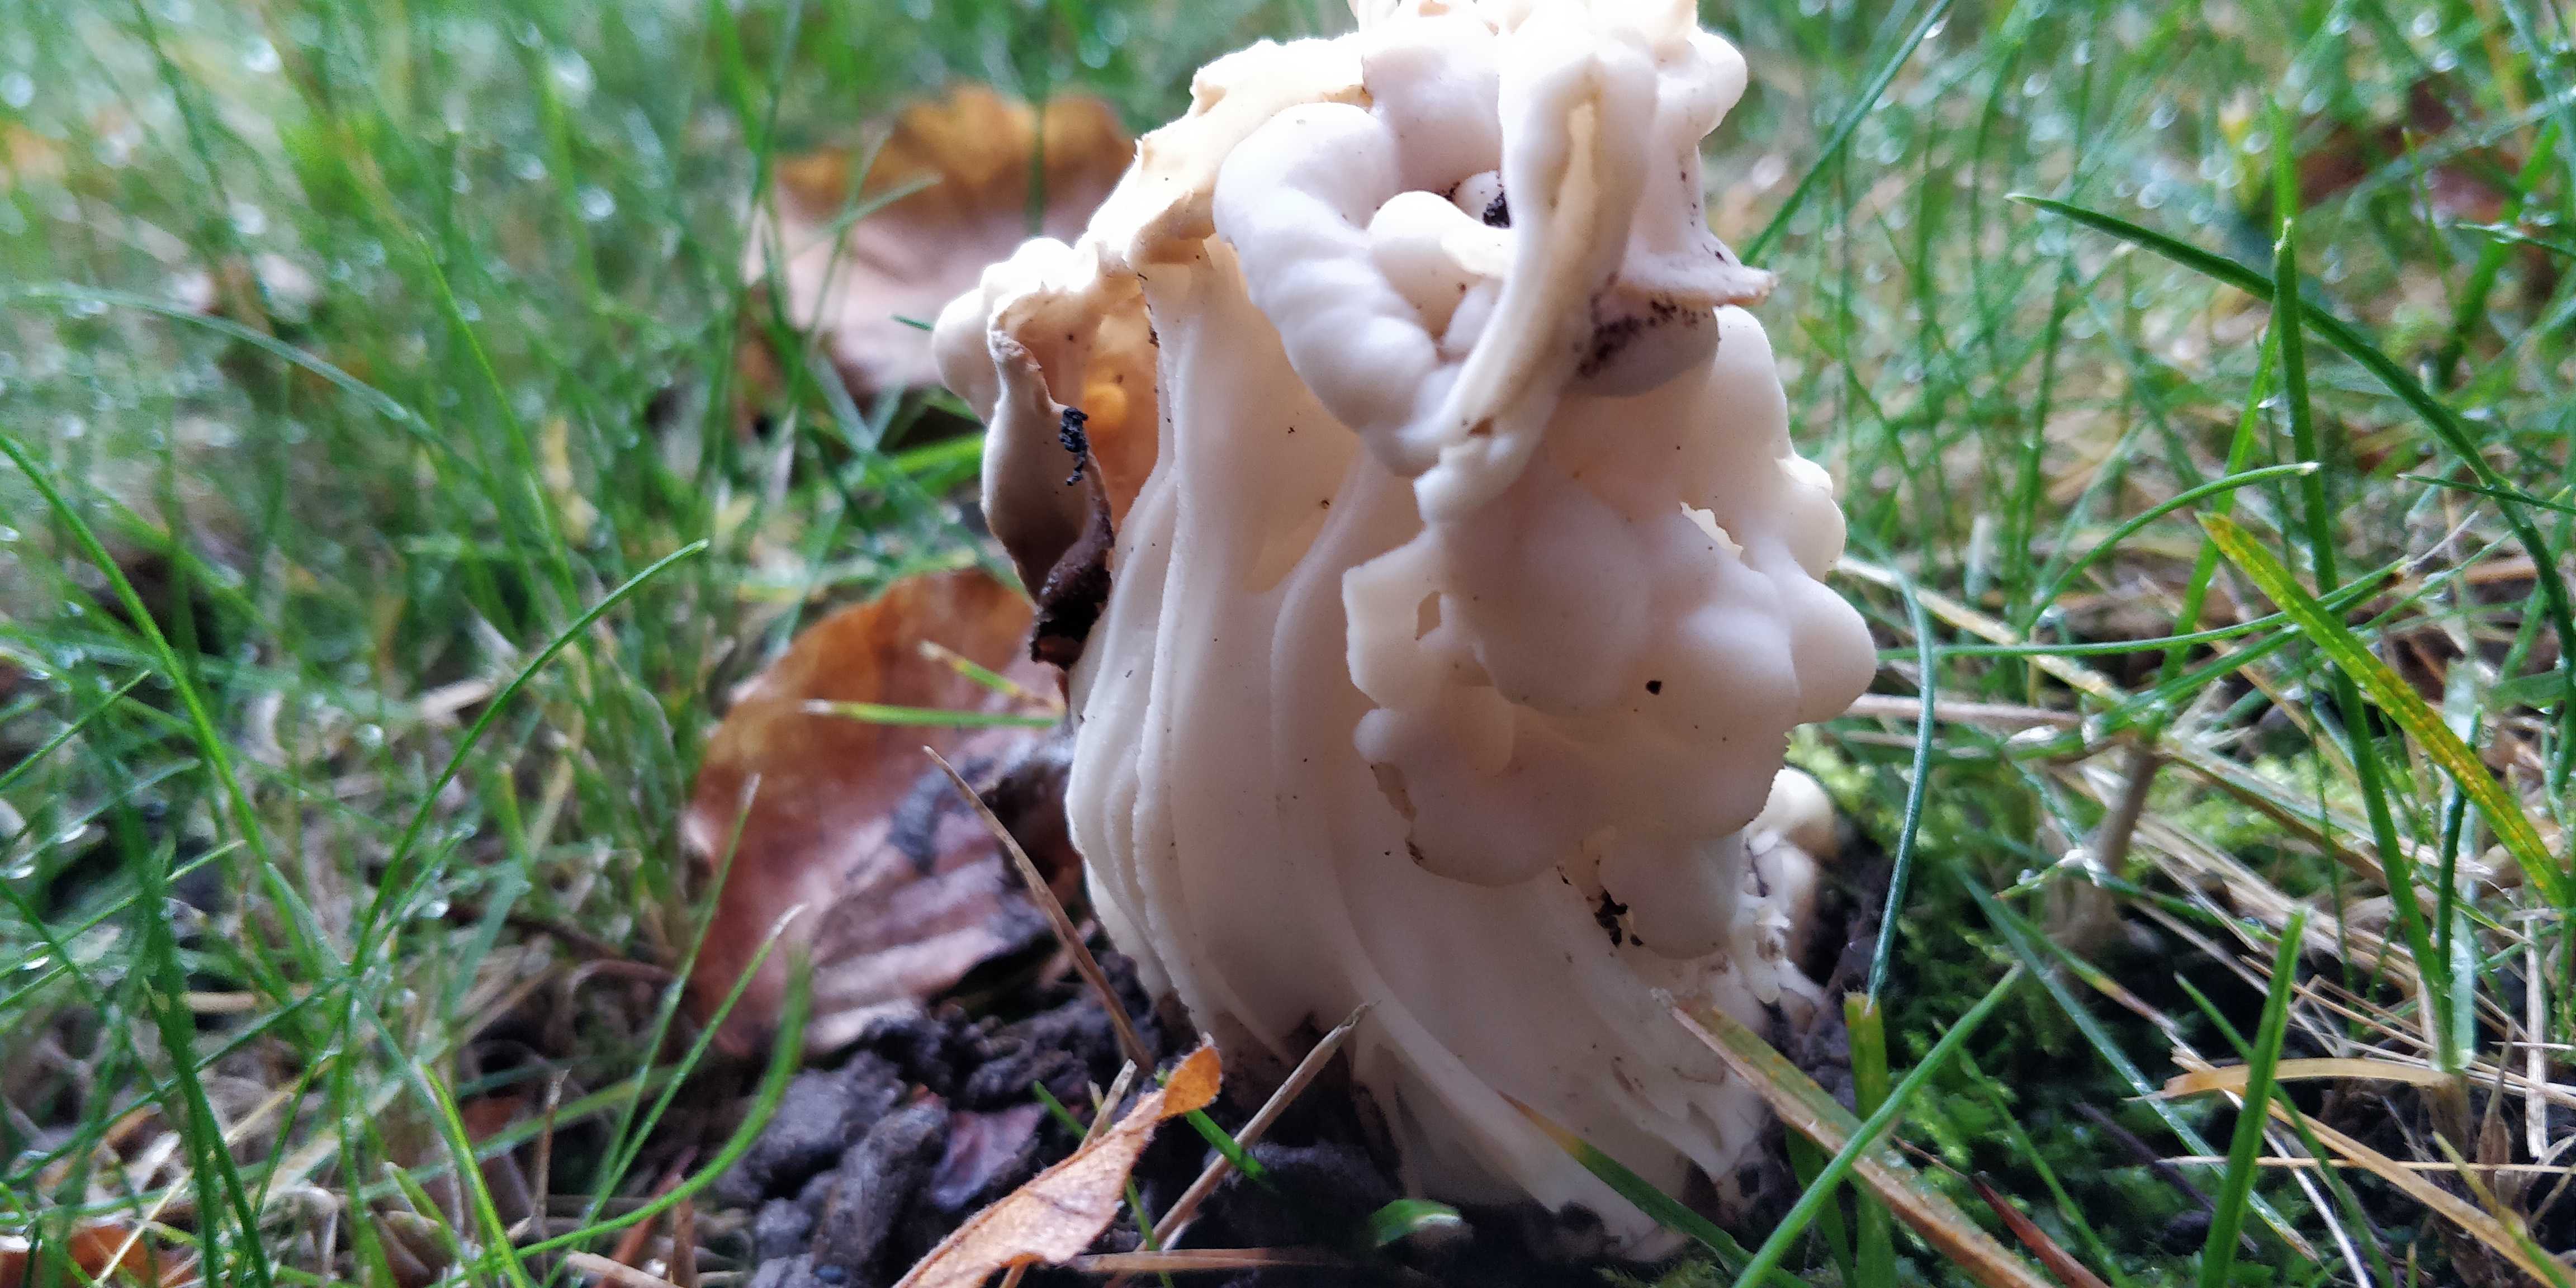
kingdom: Fungi
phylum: Ascomycota
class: Pezizomycetes
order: Pezizales
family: Helvellaceae
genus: Helvella
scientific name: Helvella crispa
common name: kruset foldhat
